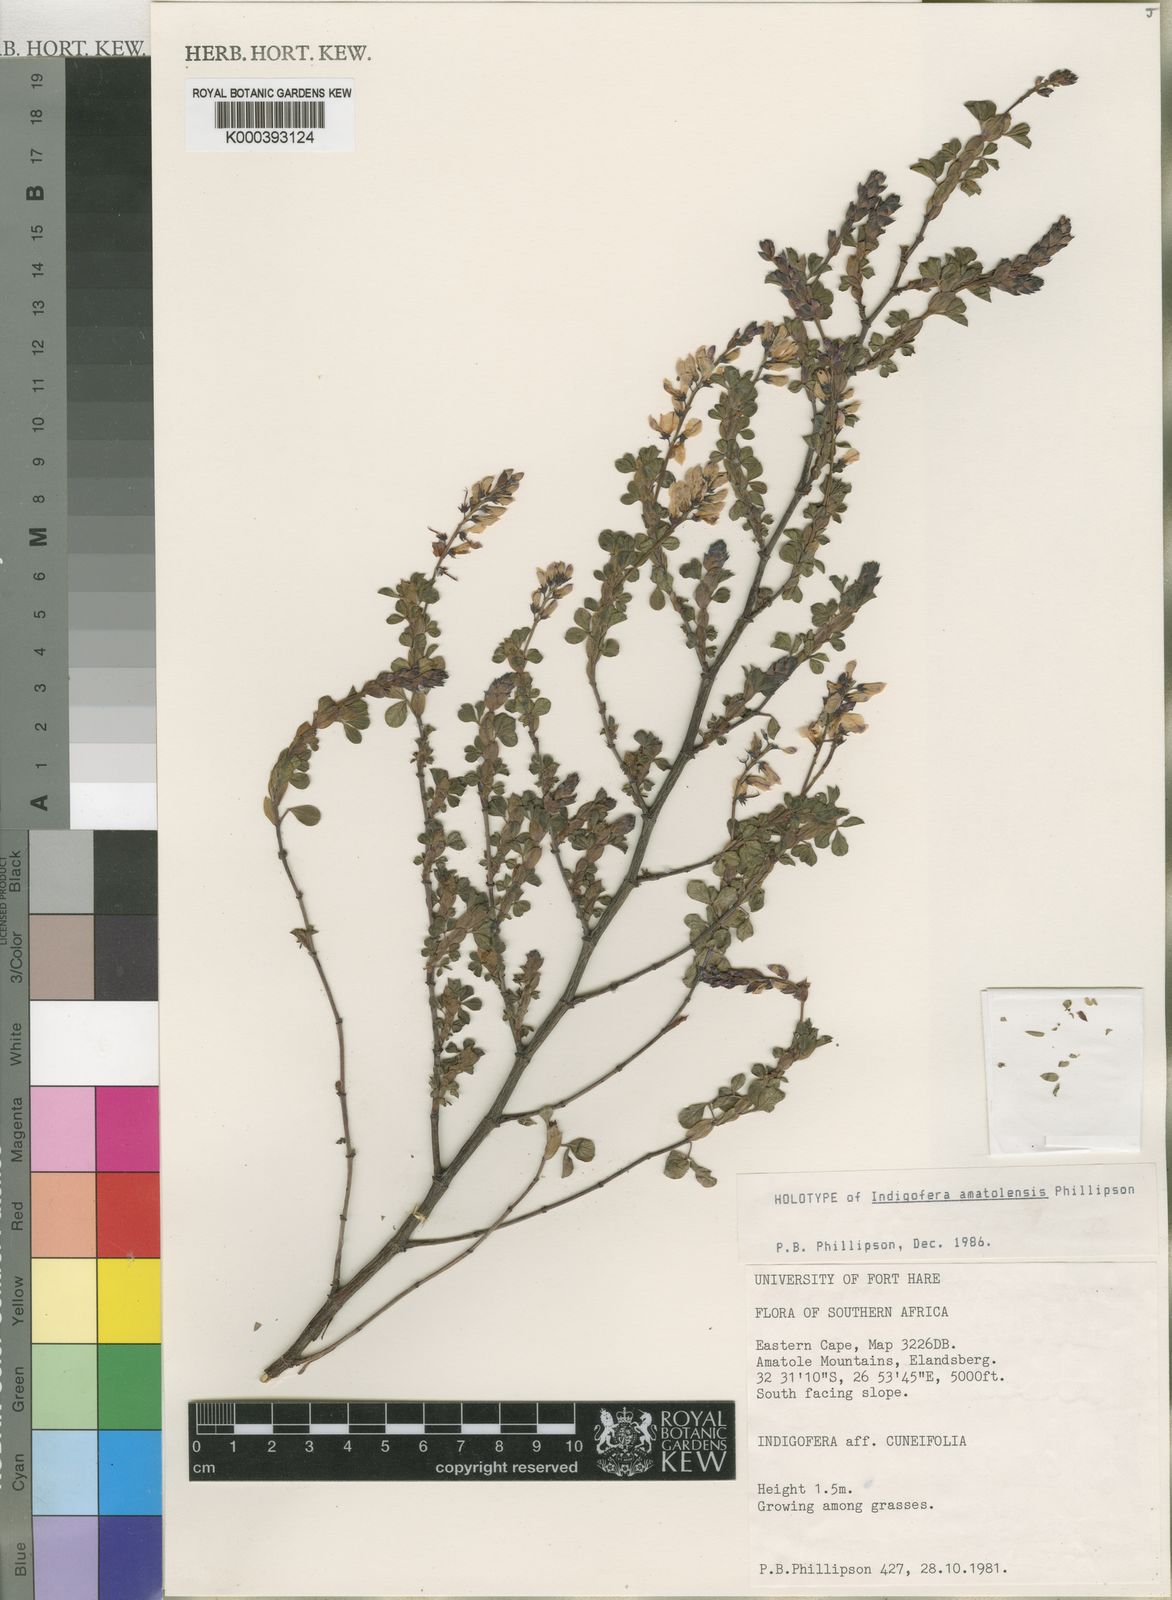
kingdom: Plantae
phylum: Tracheophyta
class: Magnoliopsida
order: Fabales
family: Fabaceae
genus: Indigofera
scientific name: Indigofera elandsbergensis
